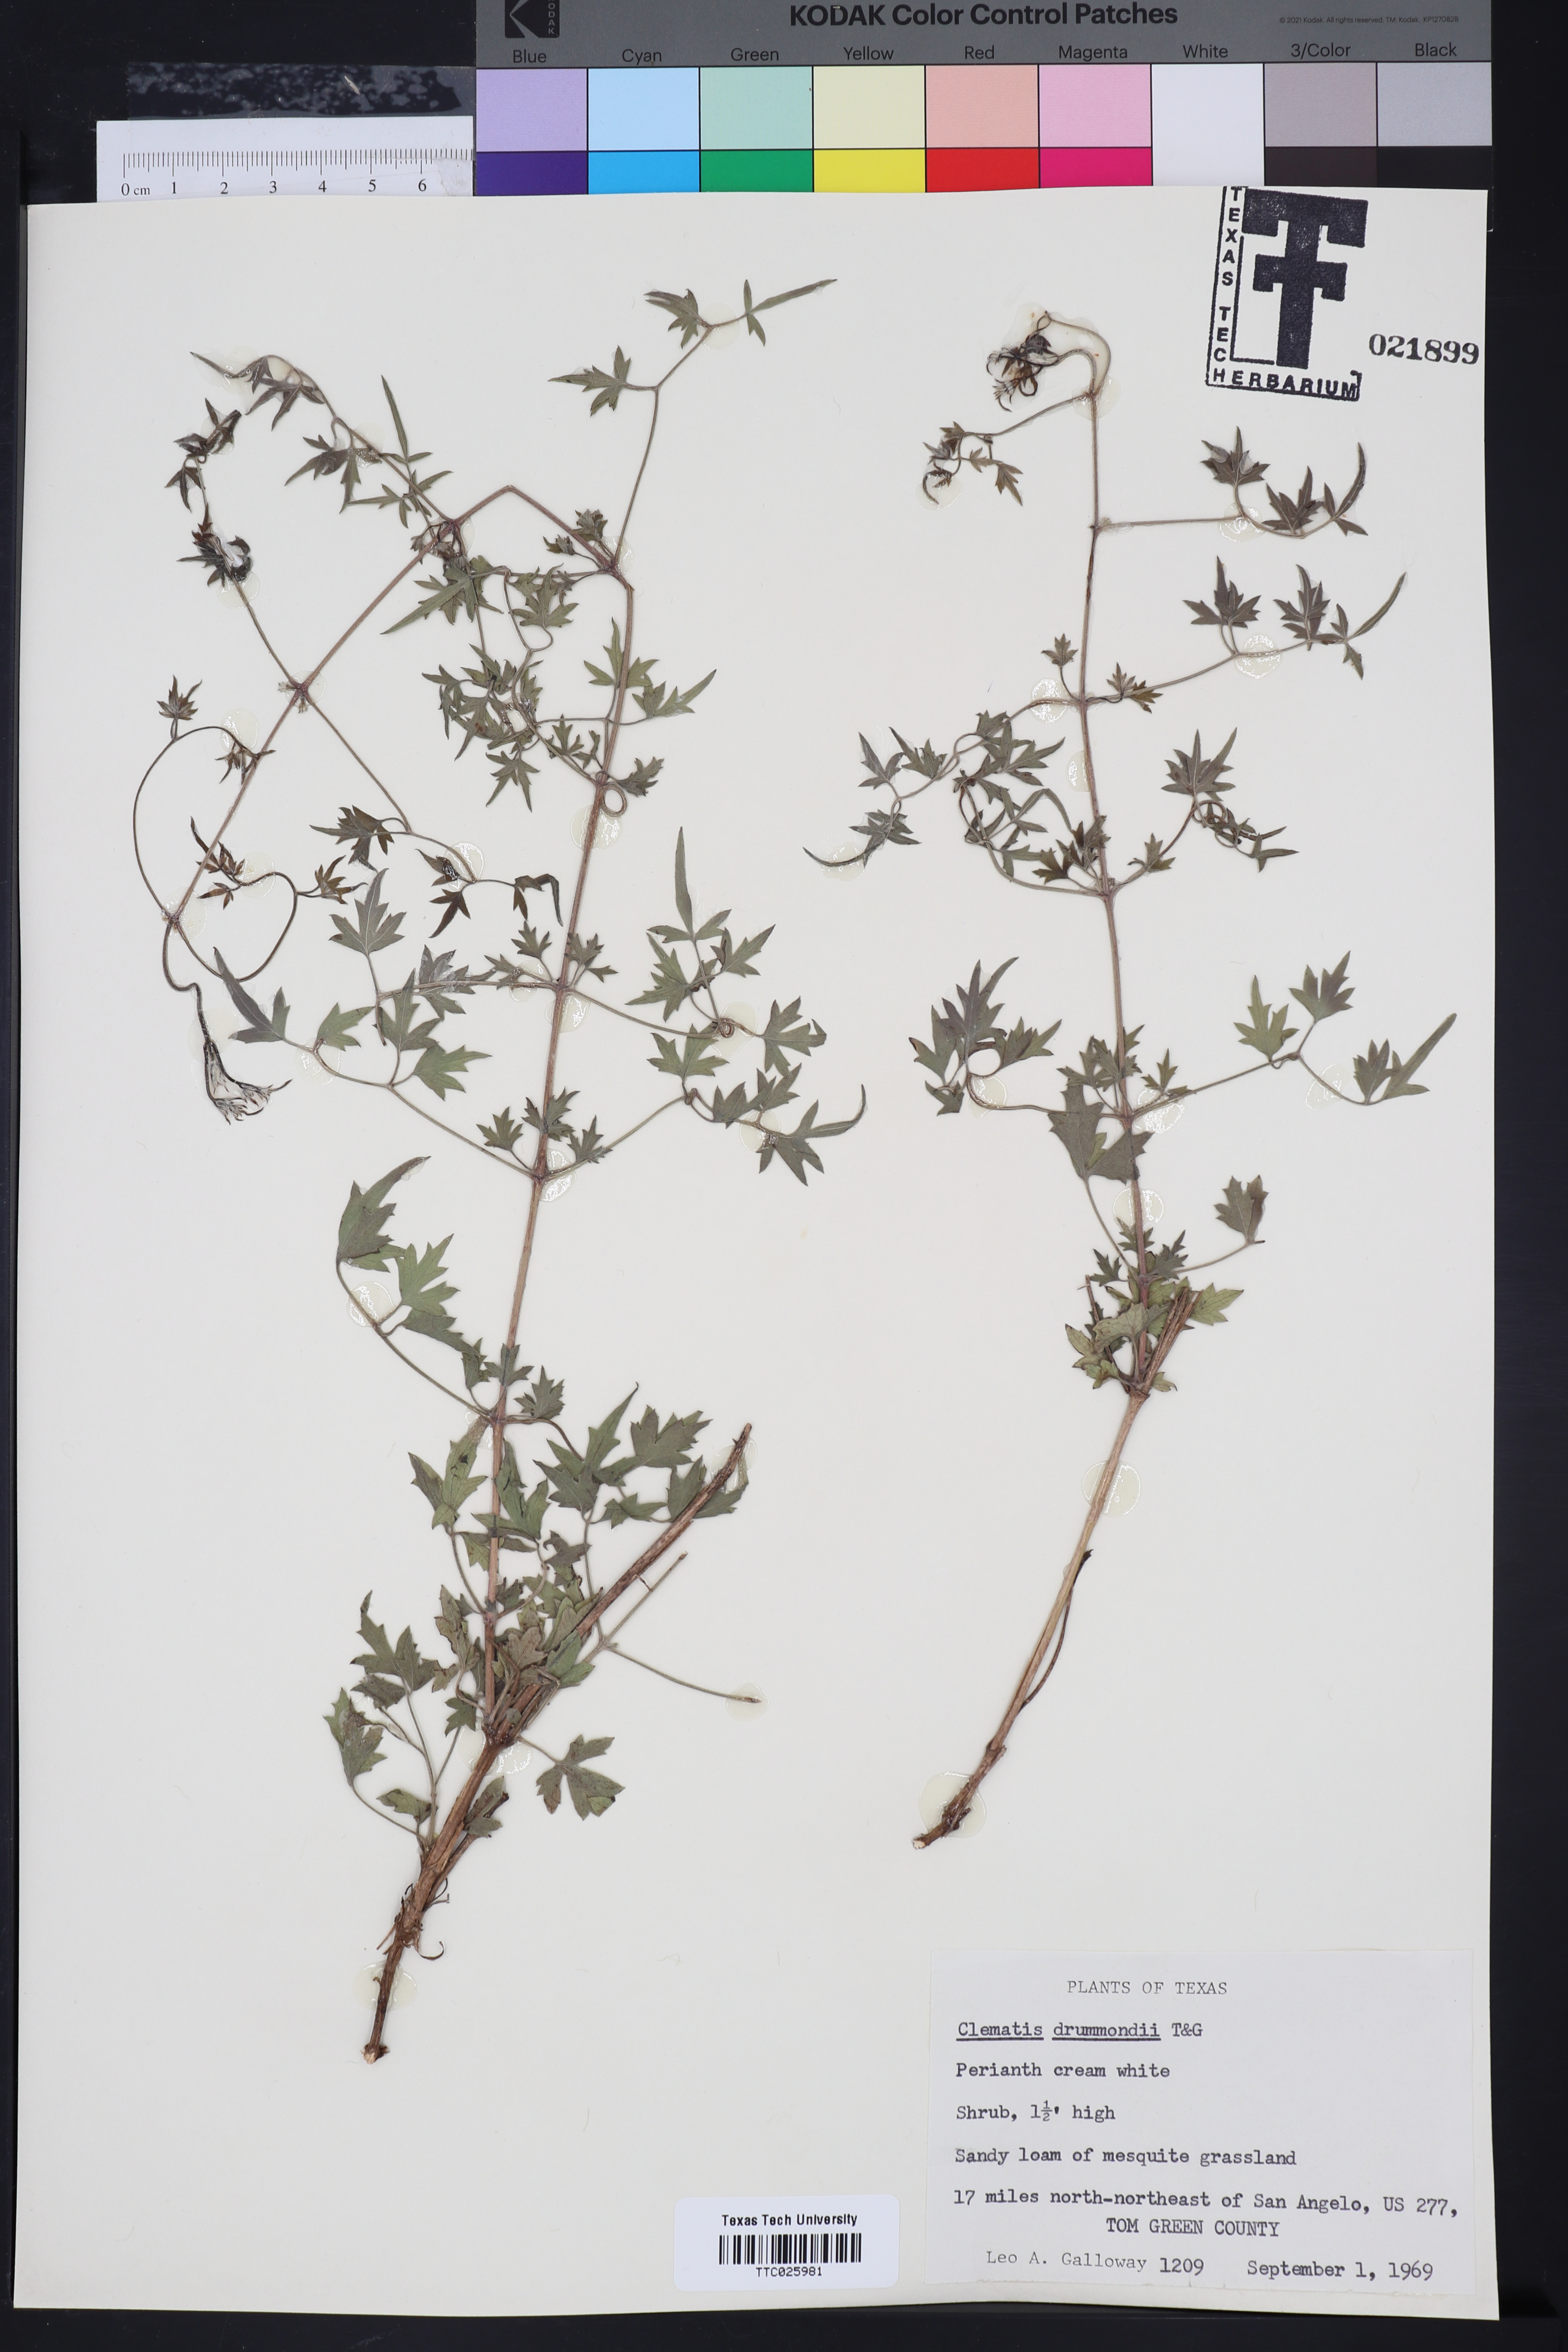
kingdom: Plantae
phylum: Tracheophyta
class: Magnoliopsida
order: Ranunculales
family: Ranunculaceae
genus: Clematis
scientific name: Clematis drummondii
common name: Texas virgin's bower
